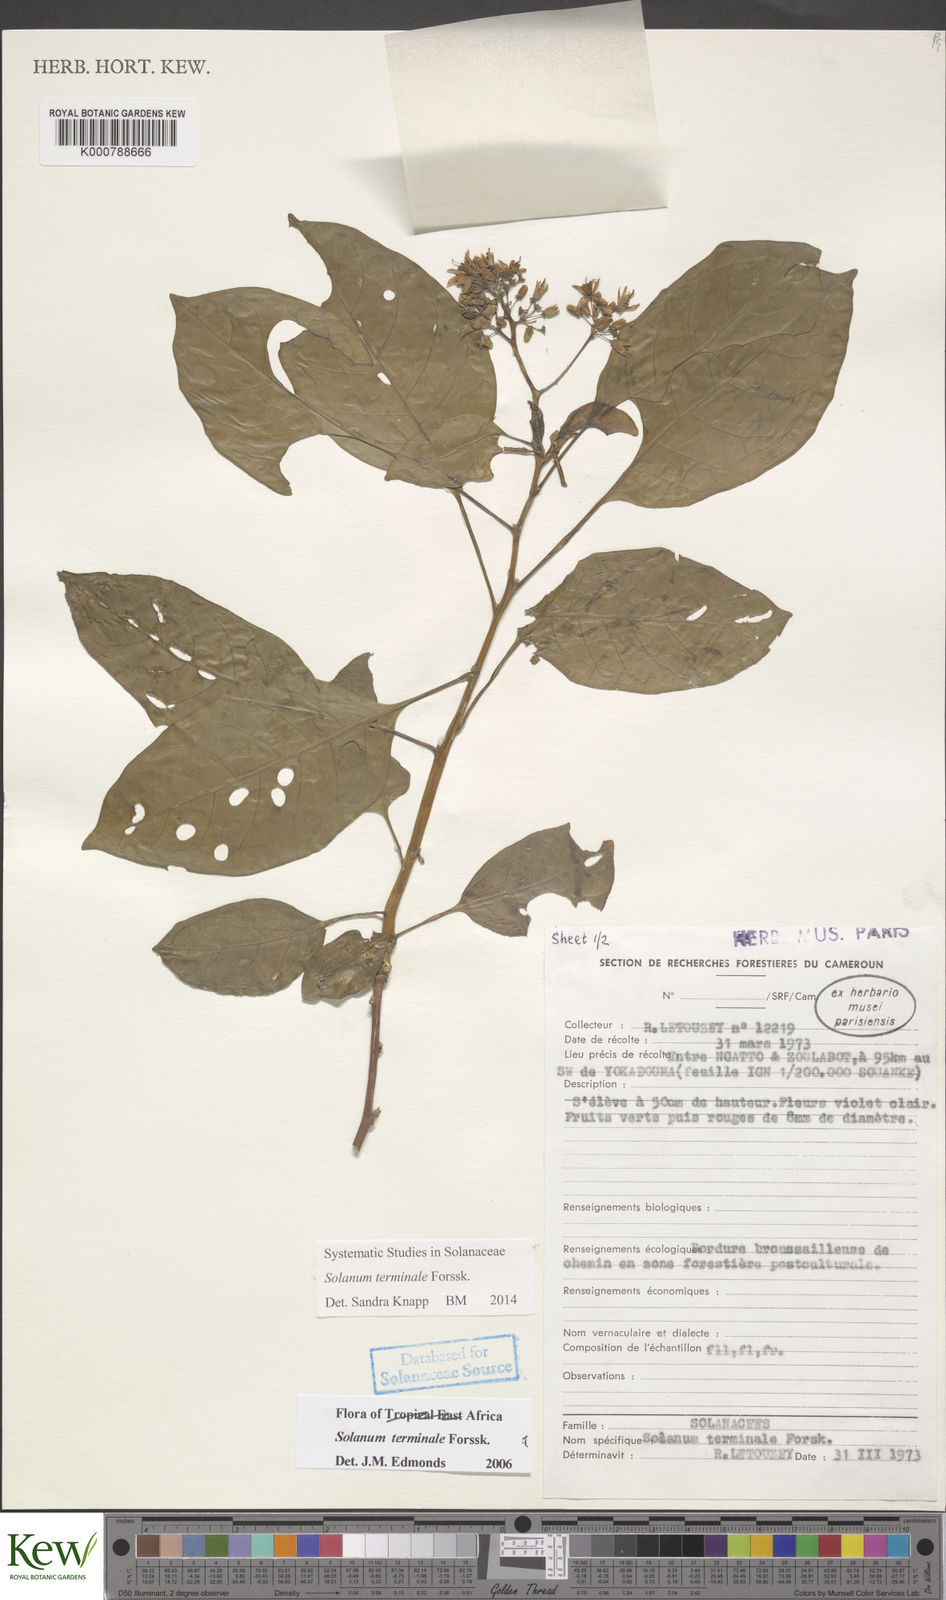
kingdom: Plantae
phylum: Tracheophyta
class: Magnoliopsida
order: Solanales
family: Solanaceae
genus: Solanum
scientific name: Solanum terminale
